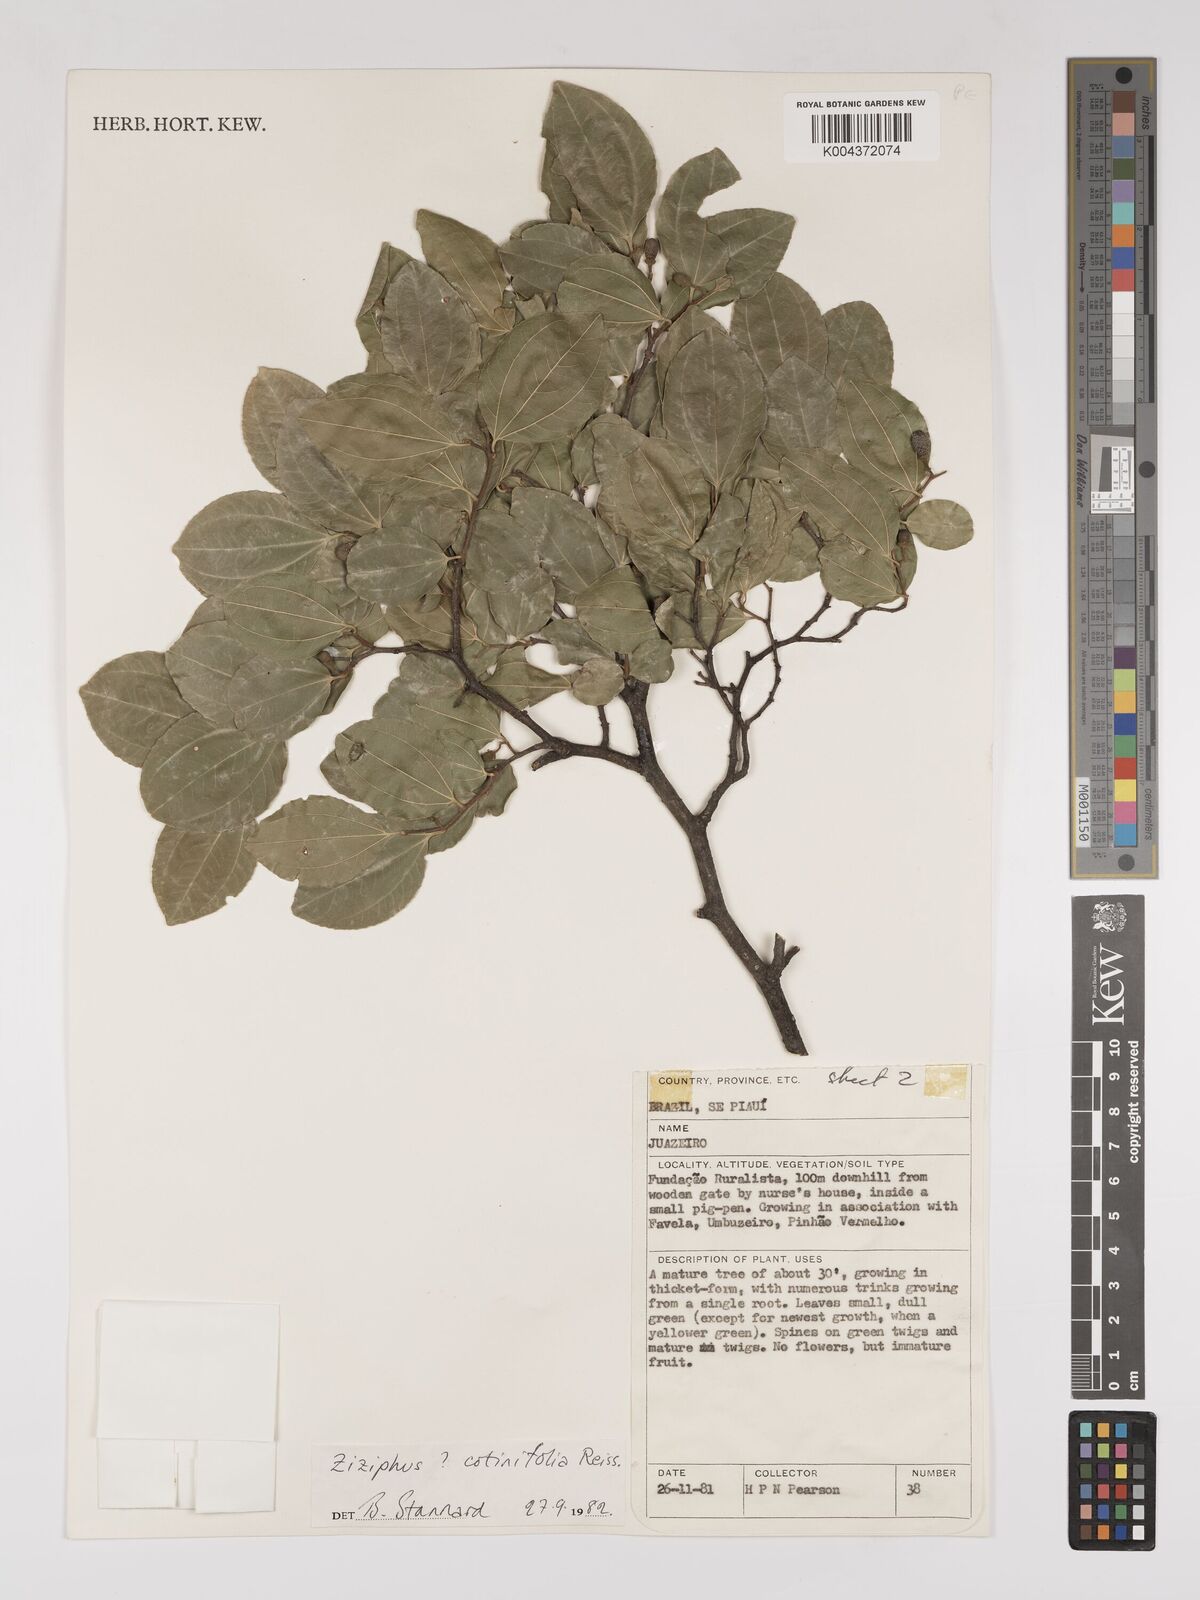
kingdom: Plantae
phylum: Tracheophyta
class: Magnoliopsida
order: Rosales
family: Rhamnaceae
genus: Sarcomphalus
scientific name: Sarcomphalus cotinifolius
